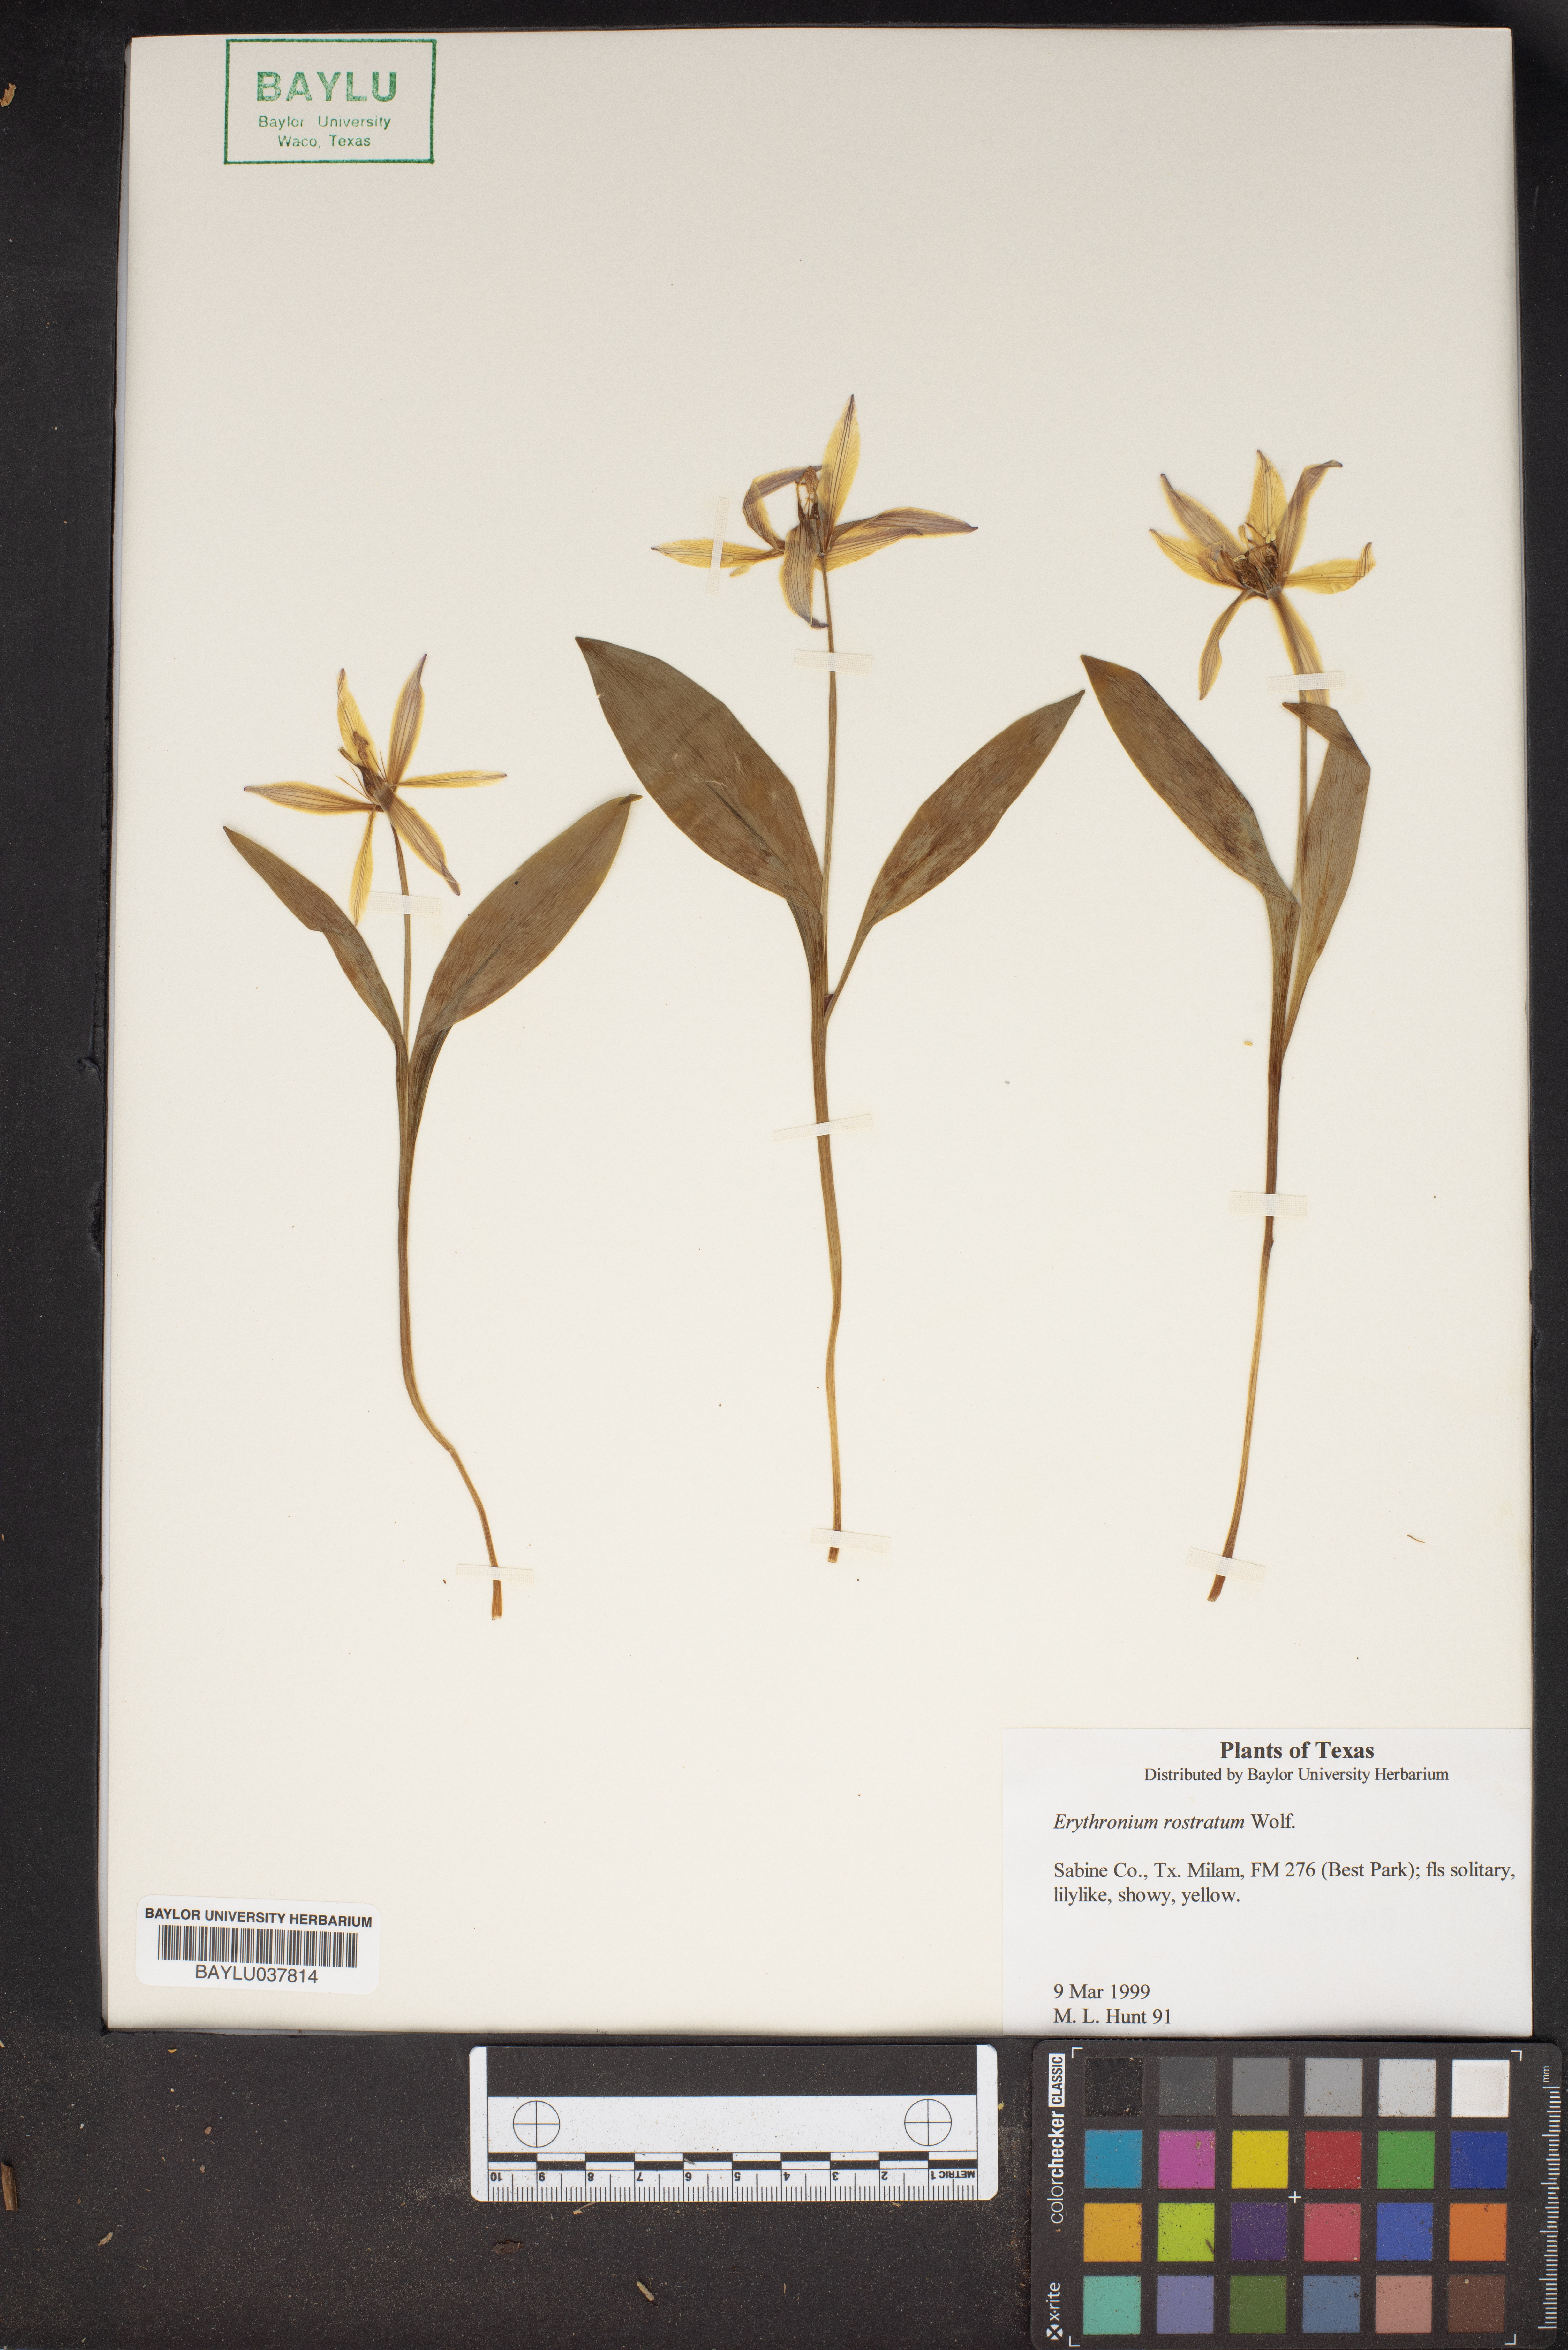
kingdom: Plantae
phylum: Tracheophyta
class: Liliopsida
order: Liliales
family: Liliaceae
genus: Erythronium
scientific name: Erythronium rostratum
